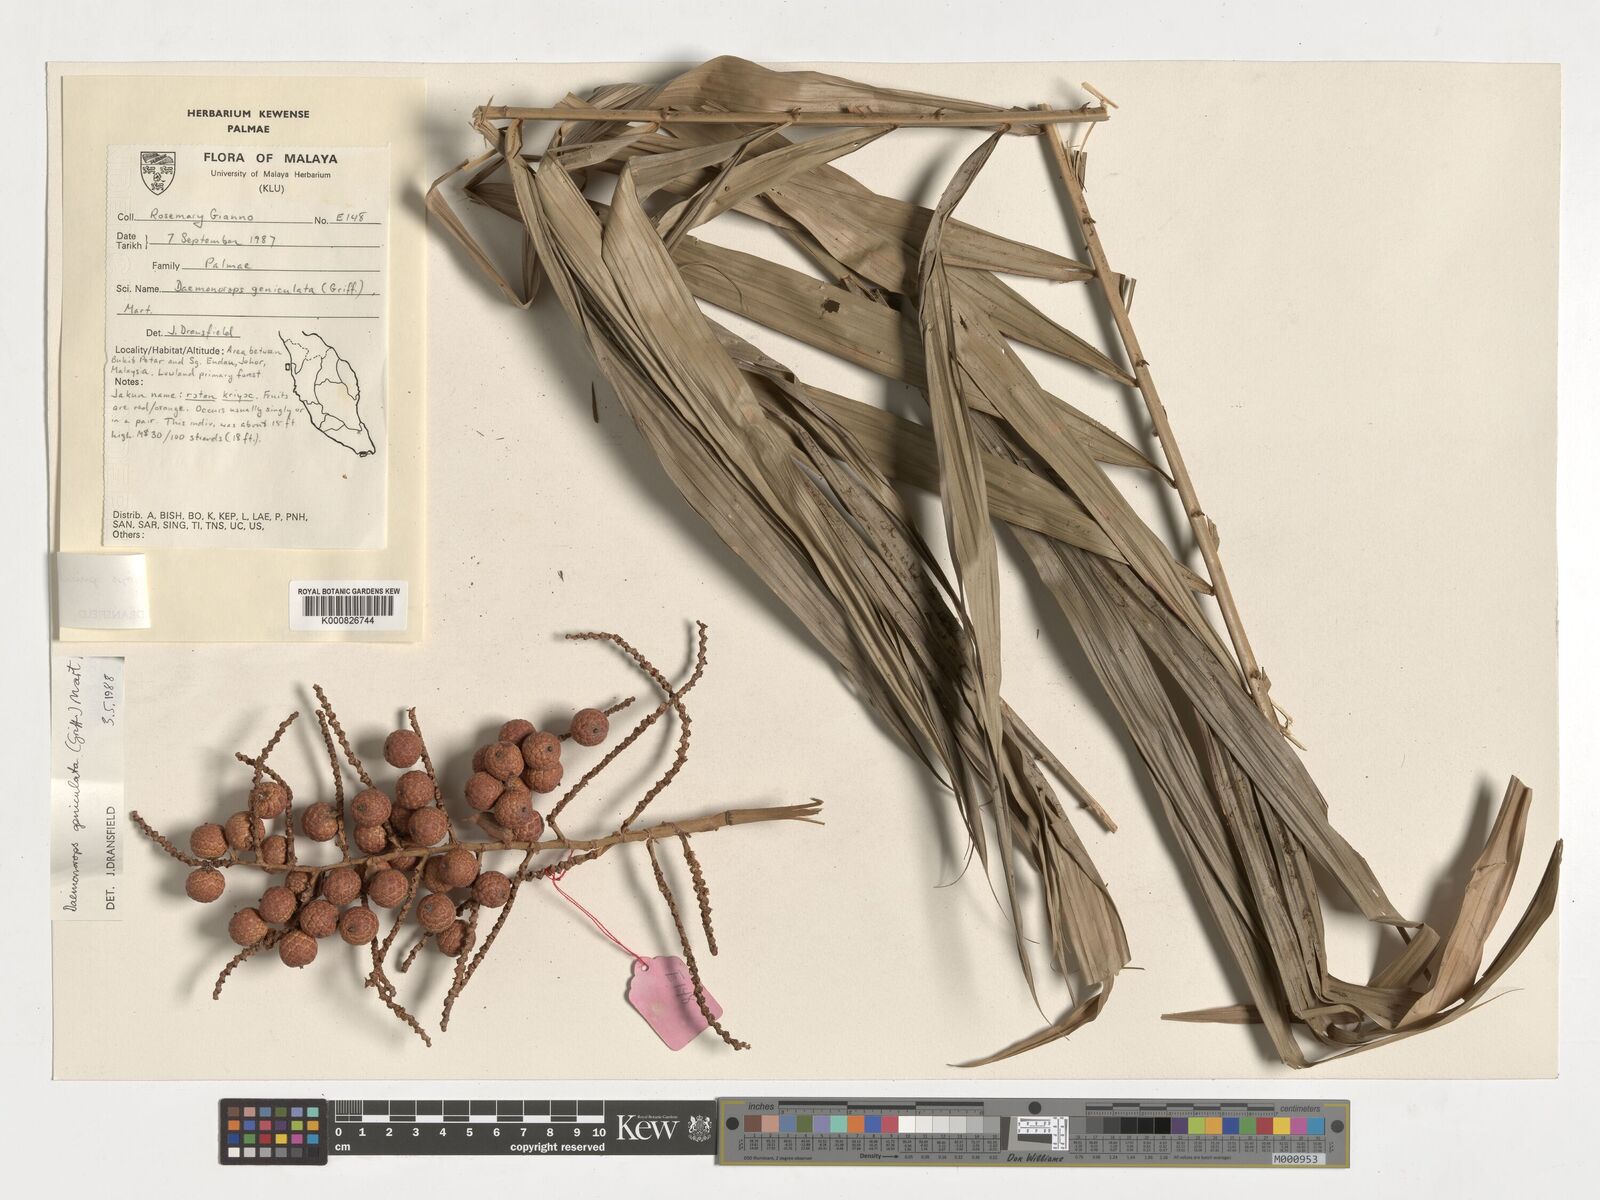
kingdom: Plantae
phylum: Tracheophyta
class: Liliopsida
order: Arecales
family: Arecaceae
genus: Calamus
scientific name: Calamus geniculatus
